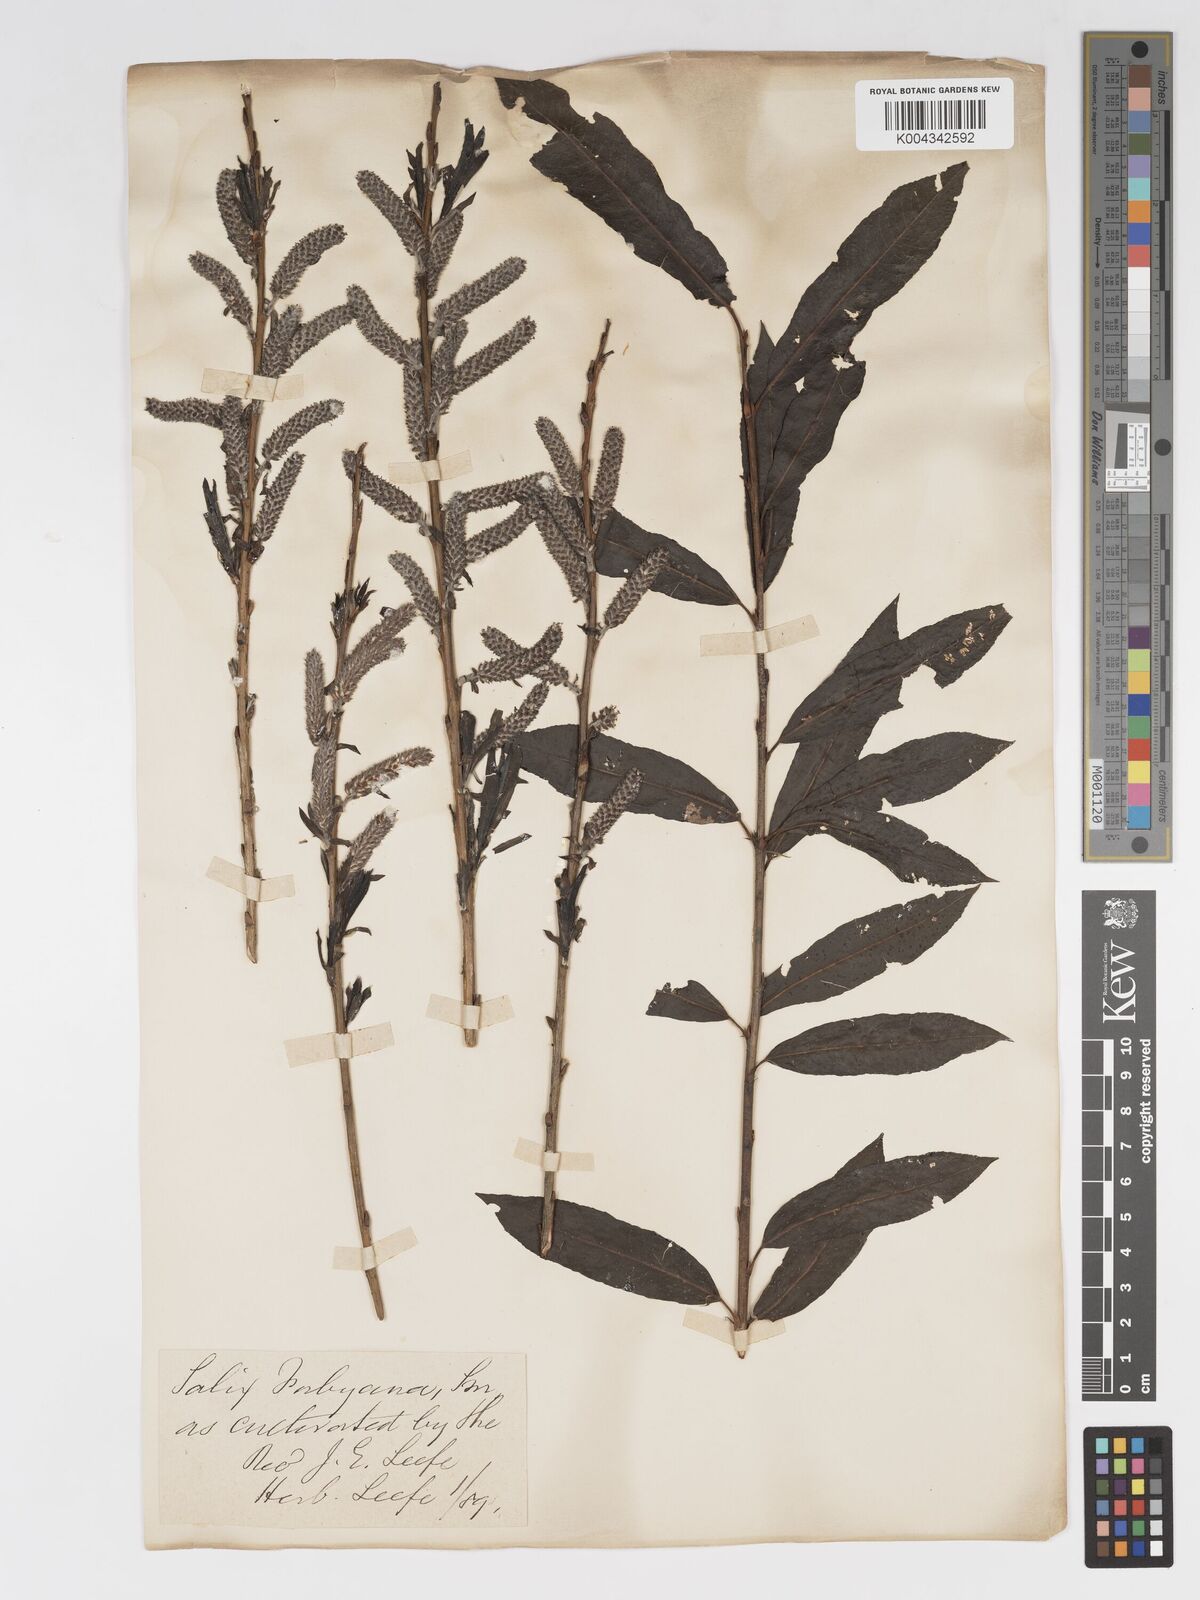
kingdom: Plantae
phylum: Tracheophyta
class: Magnoliopsida
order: Malpighiales
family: Salicaceae
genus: Salix
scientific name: Salix cinerea
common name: Common sallow
